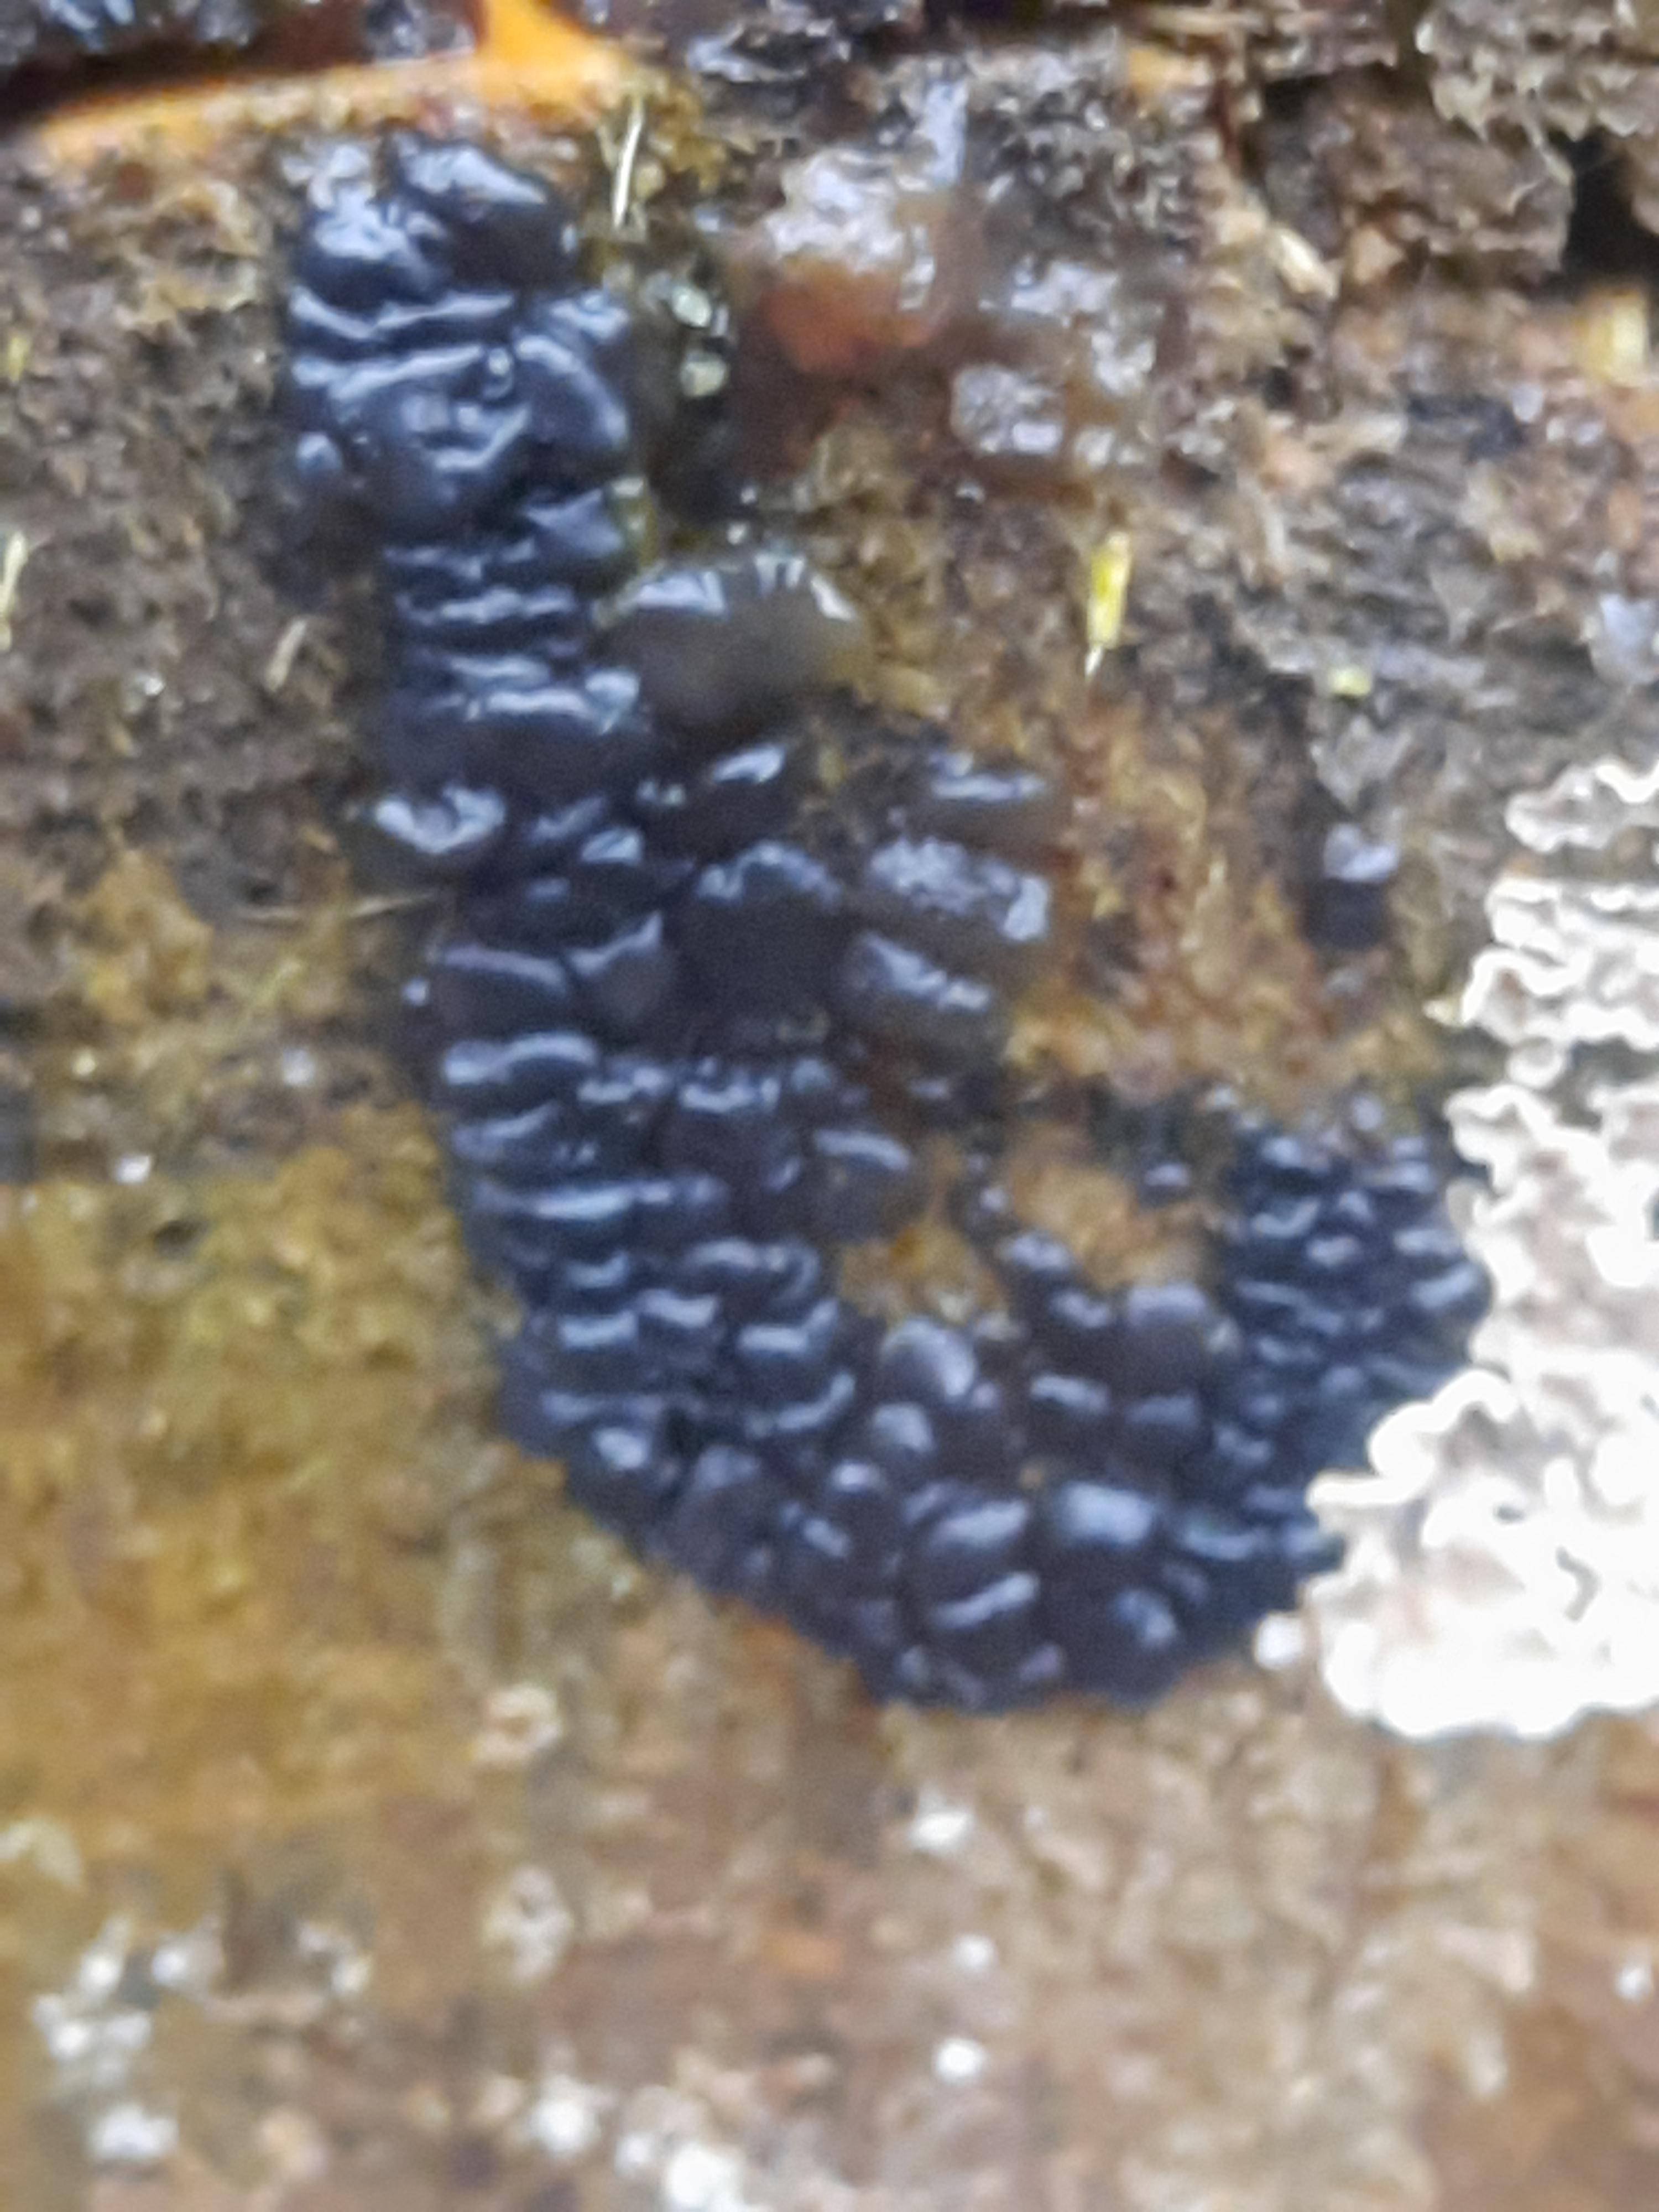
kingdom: Fungi
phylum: Basidiomycota
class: Agaricomycetes
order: Auriculariales
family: Auriculariaceae
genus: Exidia
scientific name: Exidia pithya
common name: gran-bævretop
